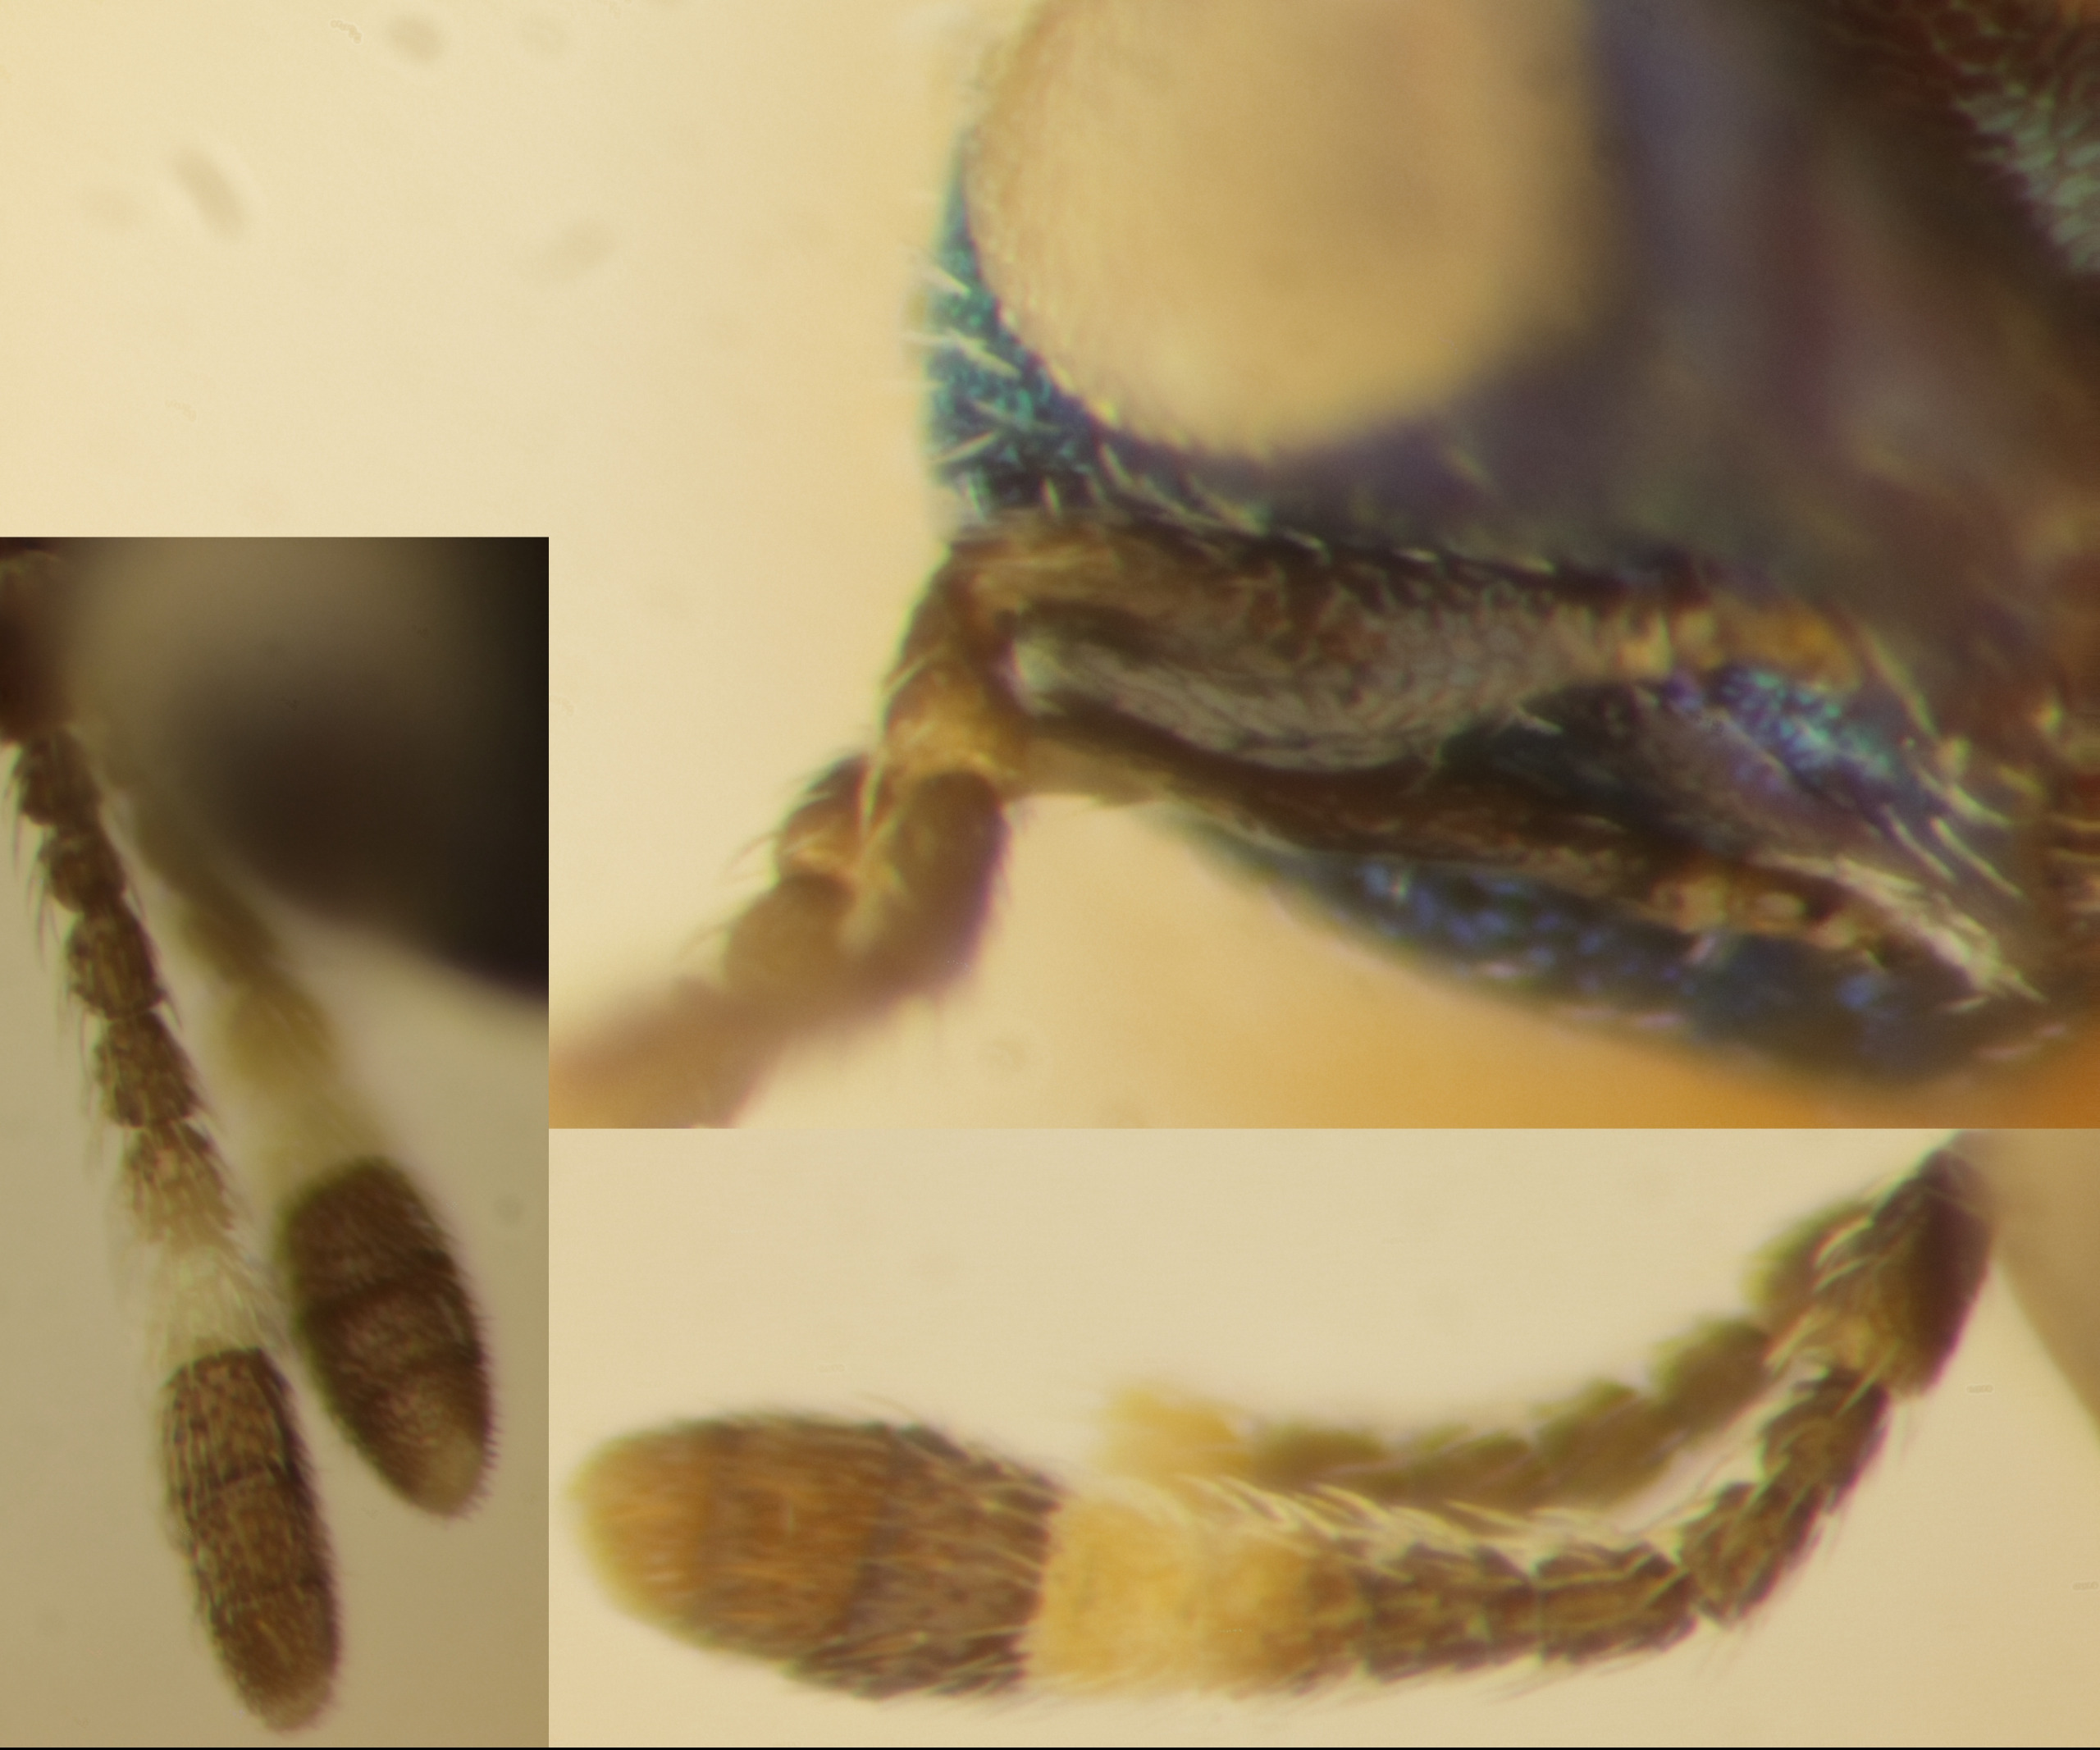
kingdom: Animalia
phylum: Arthropoda
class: Insecta
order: Hymenoptera
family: Encyrtidae
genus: Blastothrix
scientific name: Blastothrix hedqvisti
